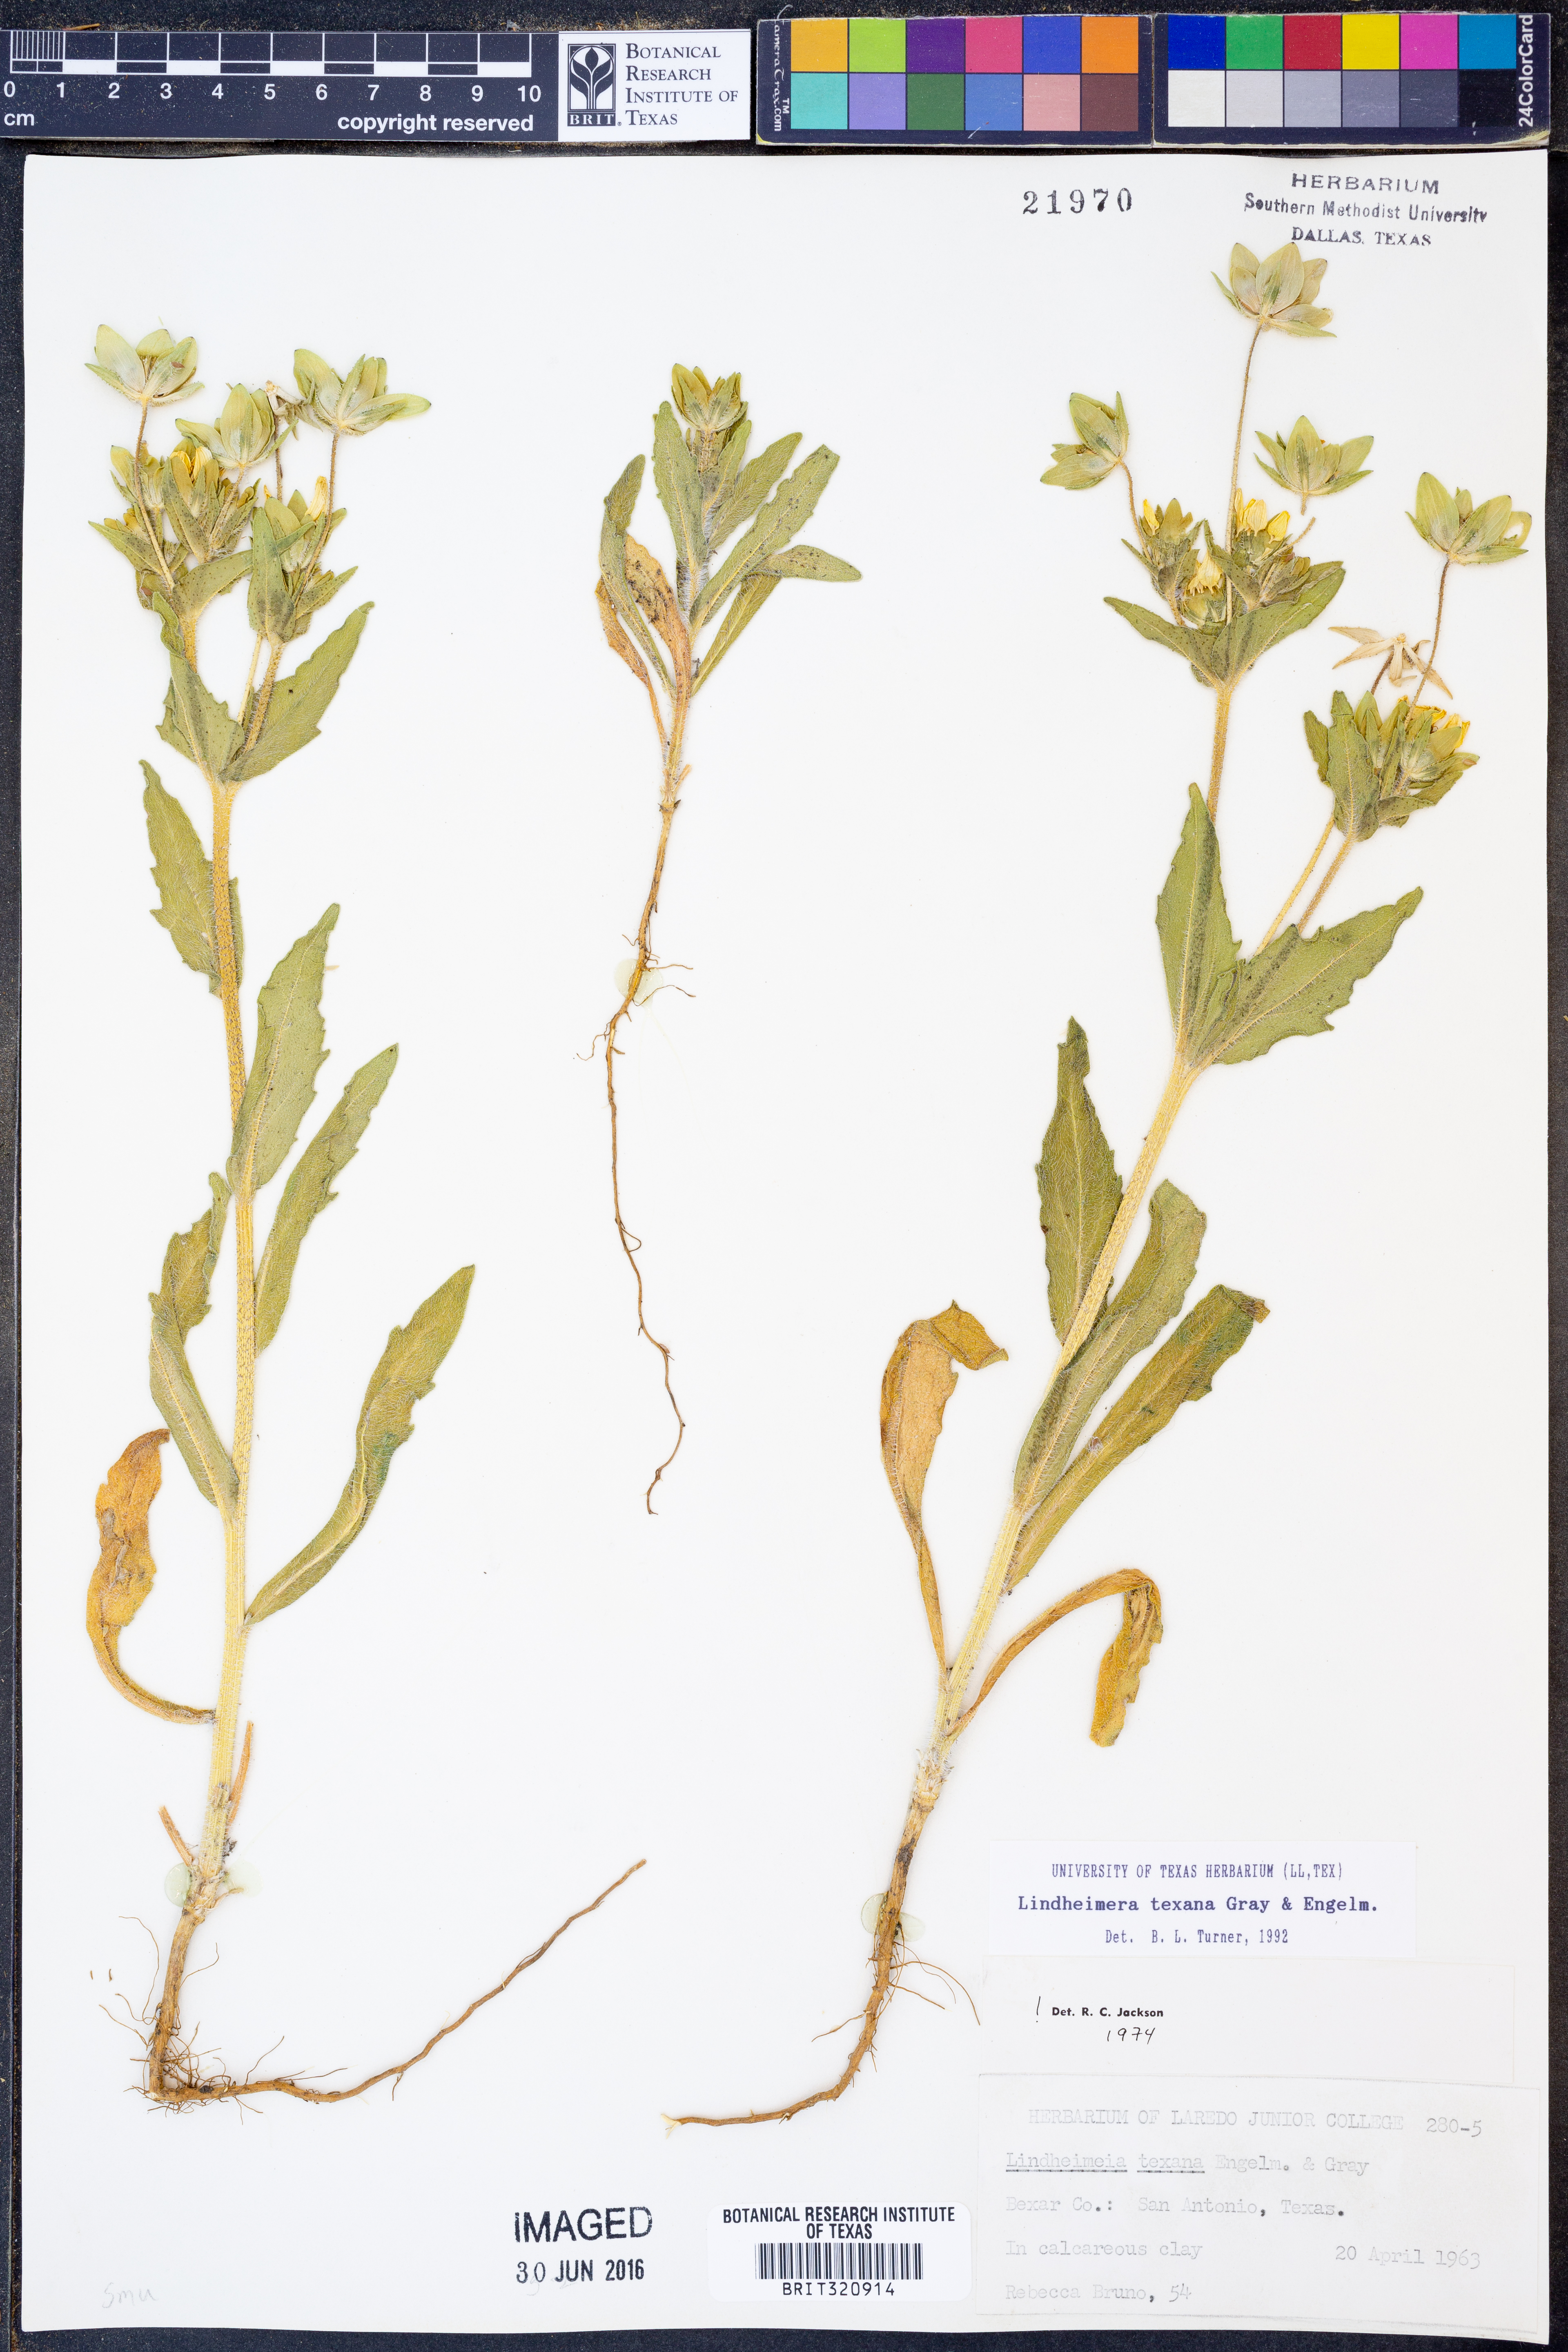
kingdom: Plantae
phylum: Tracheophyta
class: Magnoliopsida
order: Asterales
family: Asteraceae
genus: Lindheimera
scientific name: Lindheimera texana
